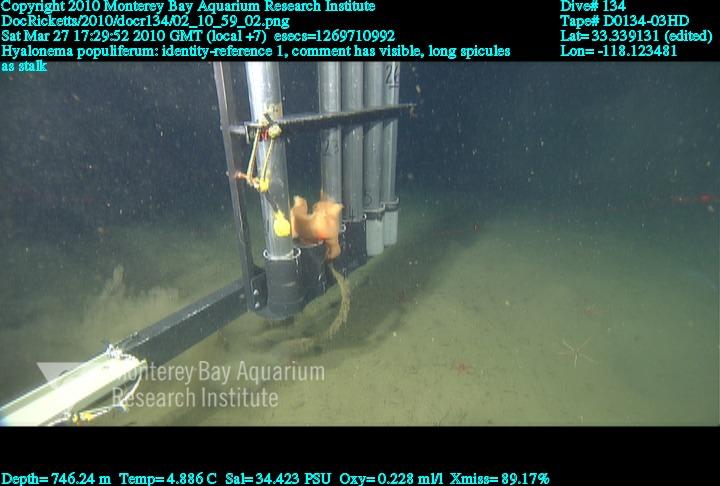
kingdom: Animalia
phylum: Porifera
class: Hexactinellida
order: Amphidiscosida
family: Hyalonematidae
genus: Hyalonema
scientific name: Hyalonema populiferum
